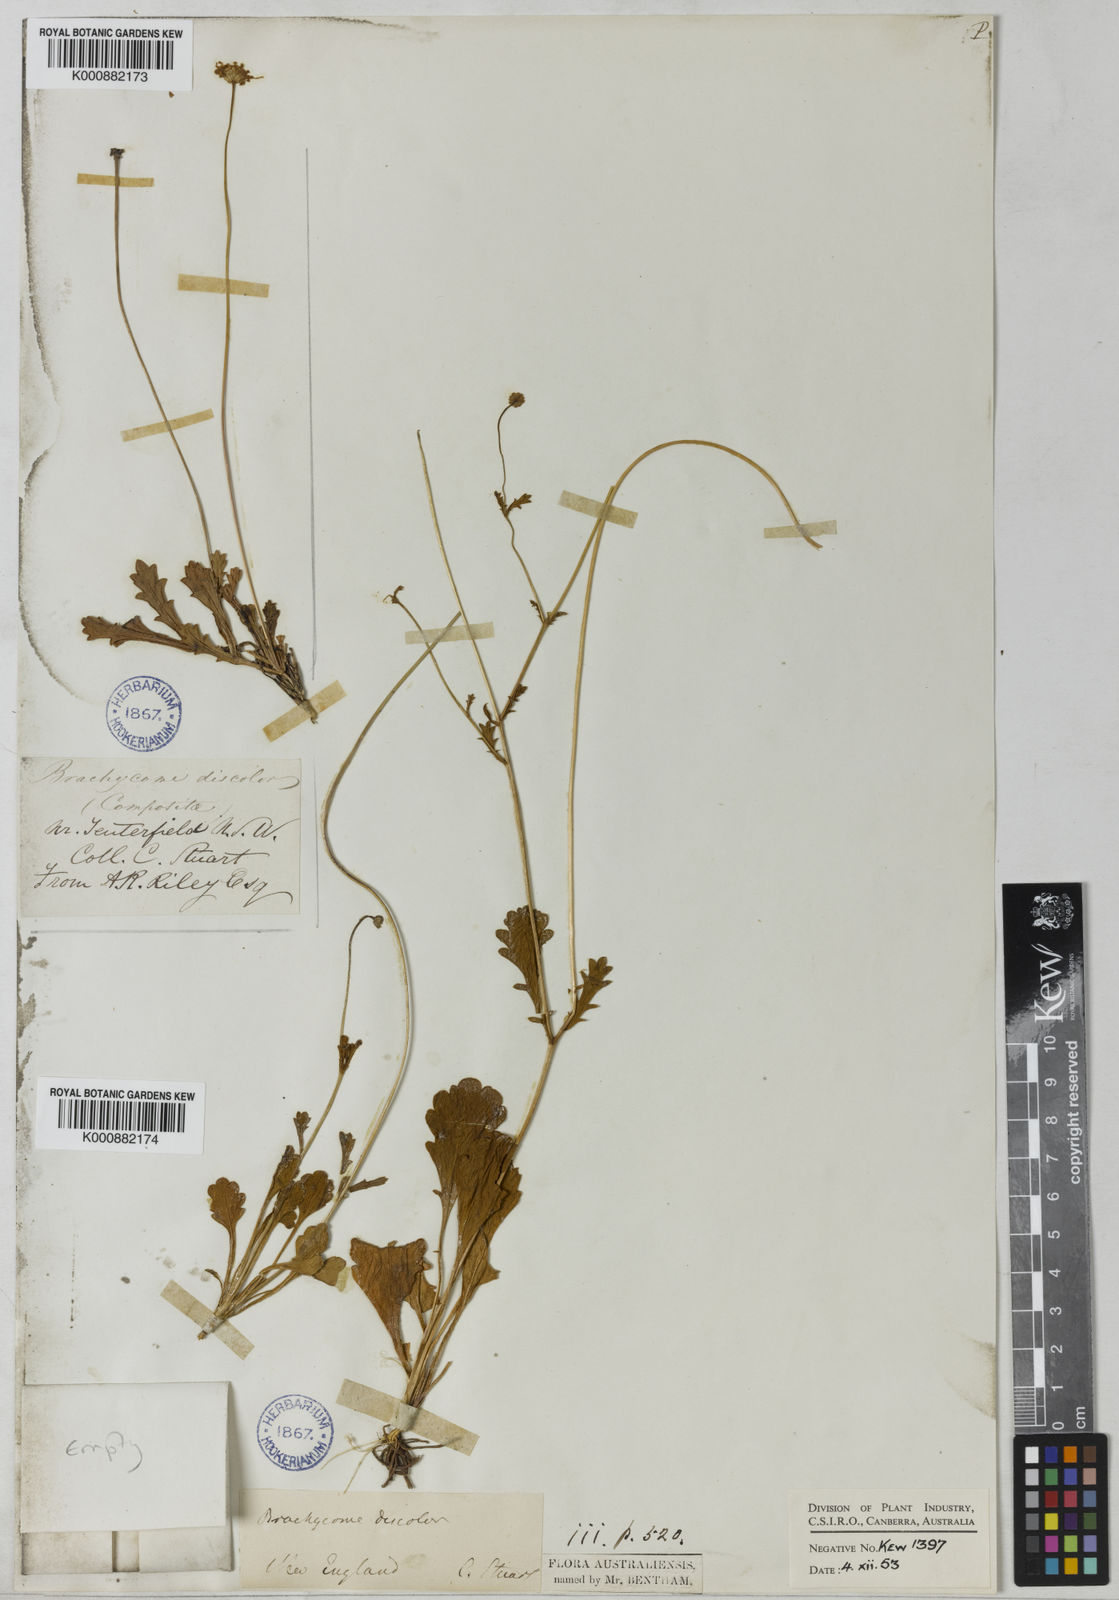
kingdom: Plantae
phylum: Tracheophyta
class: Magnoliopsida
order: Asterales
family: Asteraceae
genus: Brachyscome
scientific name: Brachyscome microcarpa
